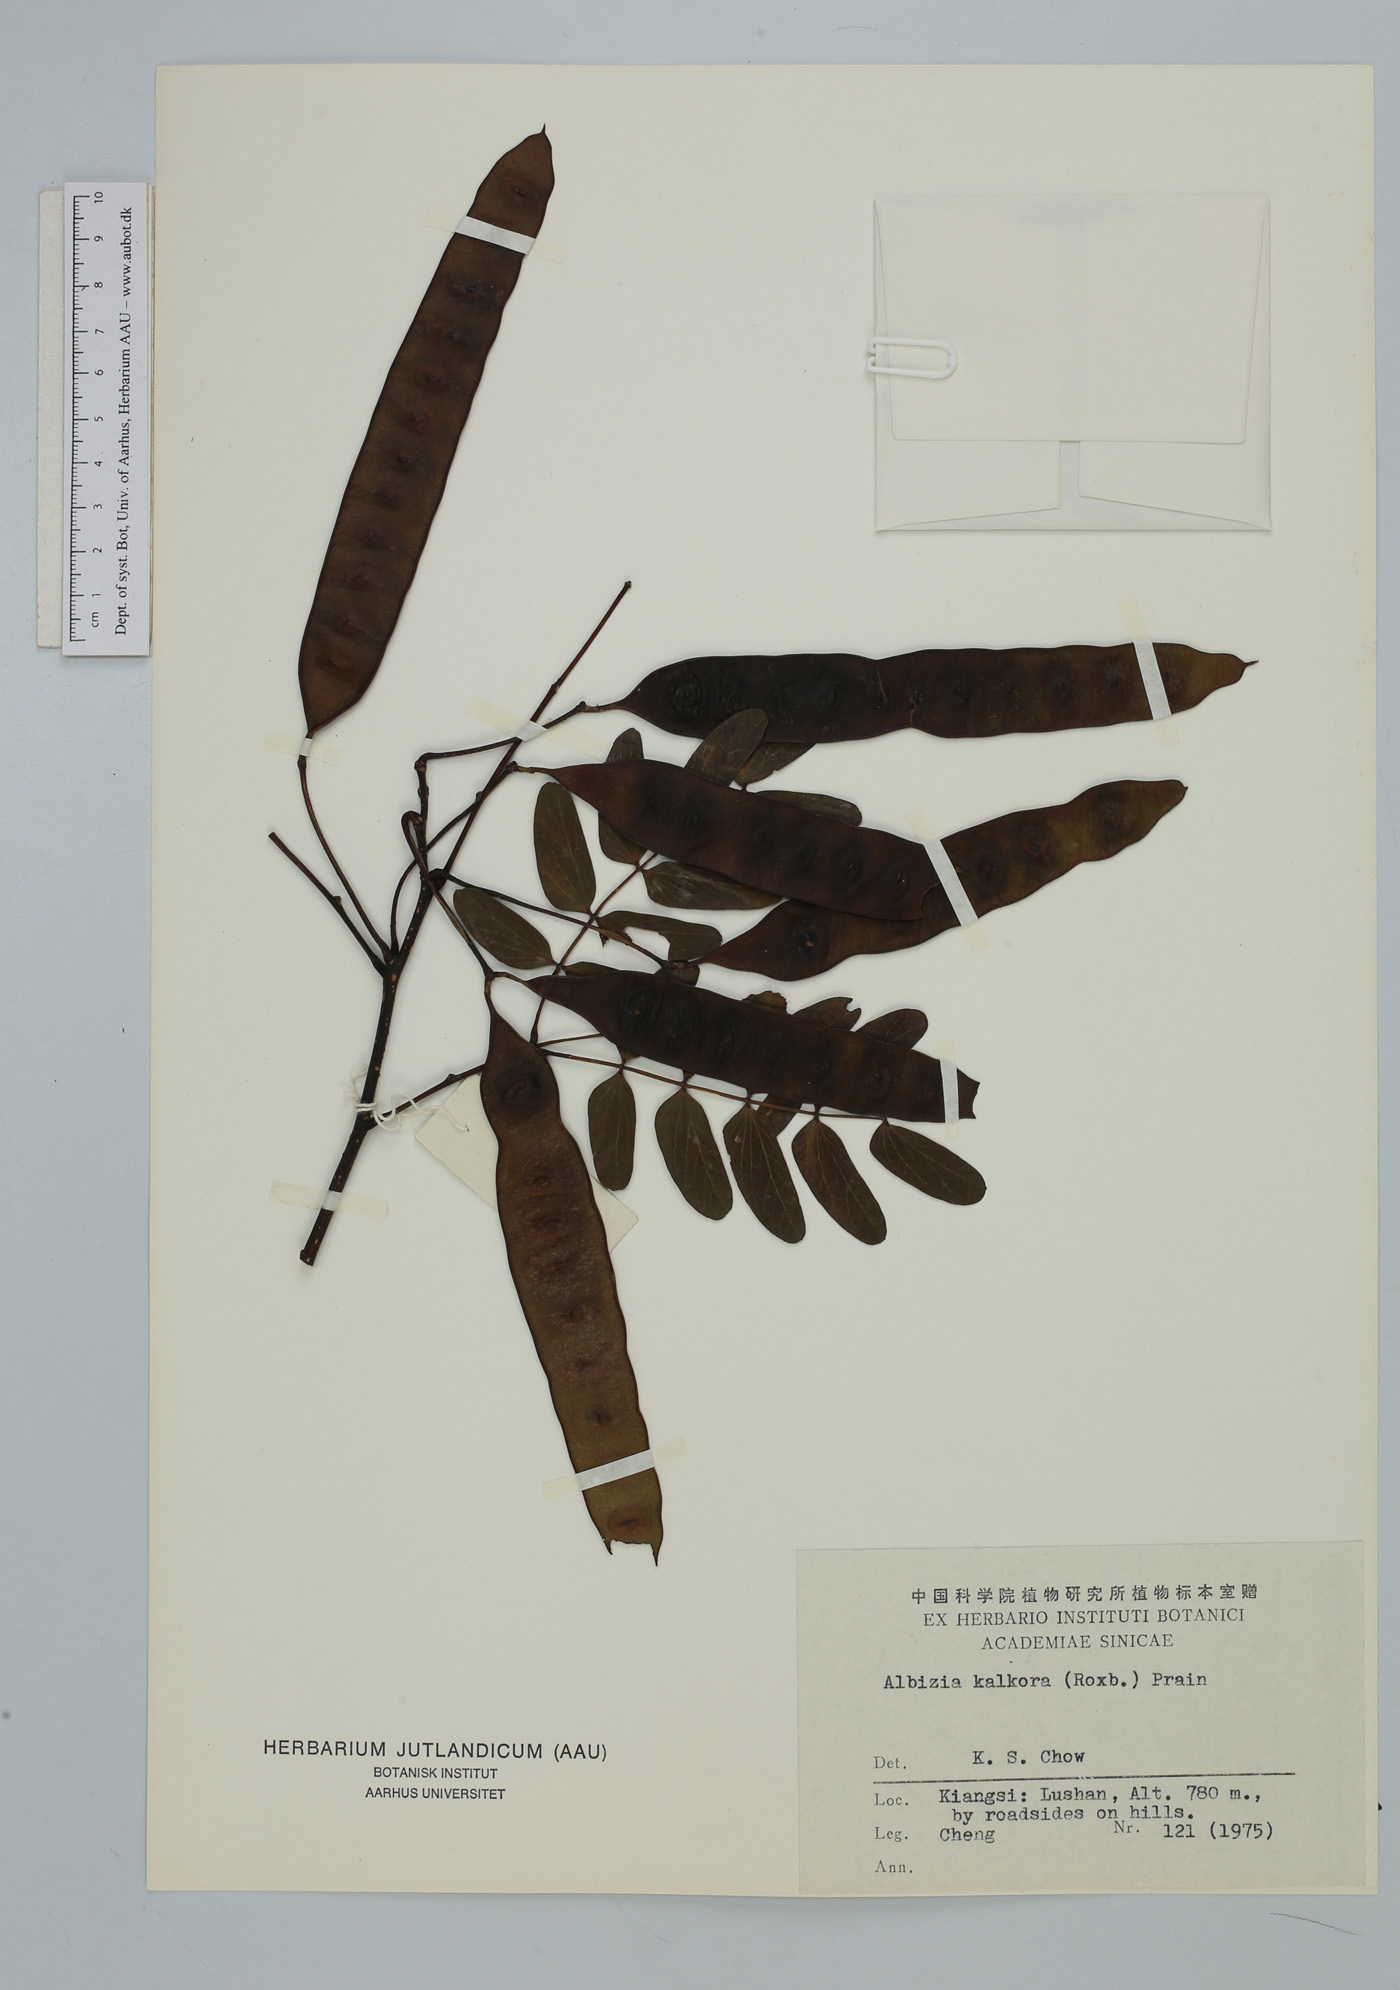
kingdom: Plantae
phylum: Tracheophyta
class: Magnoliopsida
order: Fabales
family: Fabaceae
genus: Albizia
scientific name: Albizia kalkora
